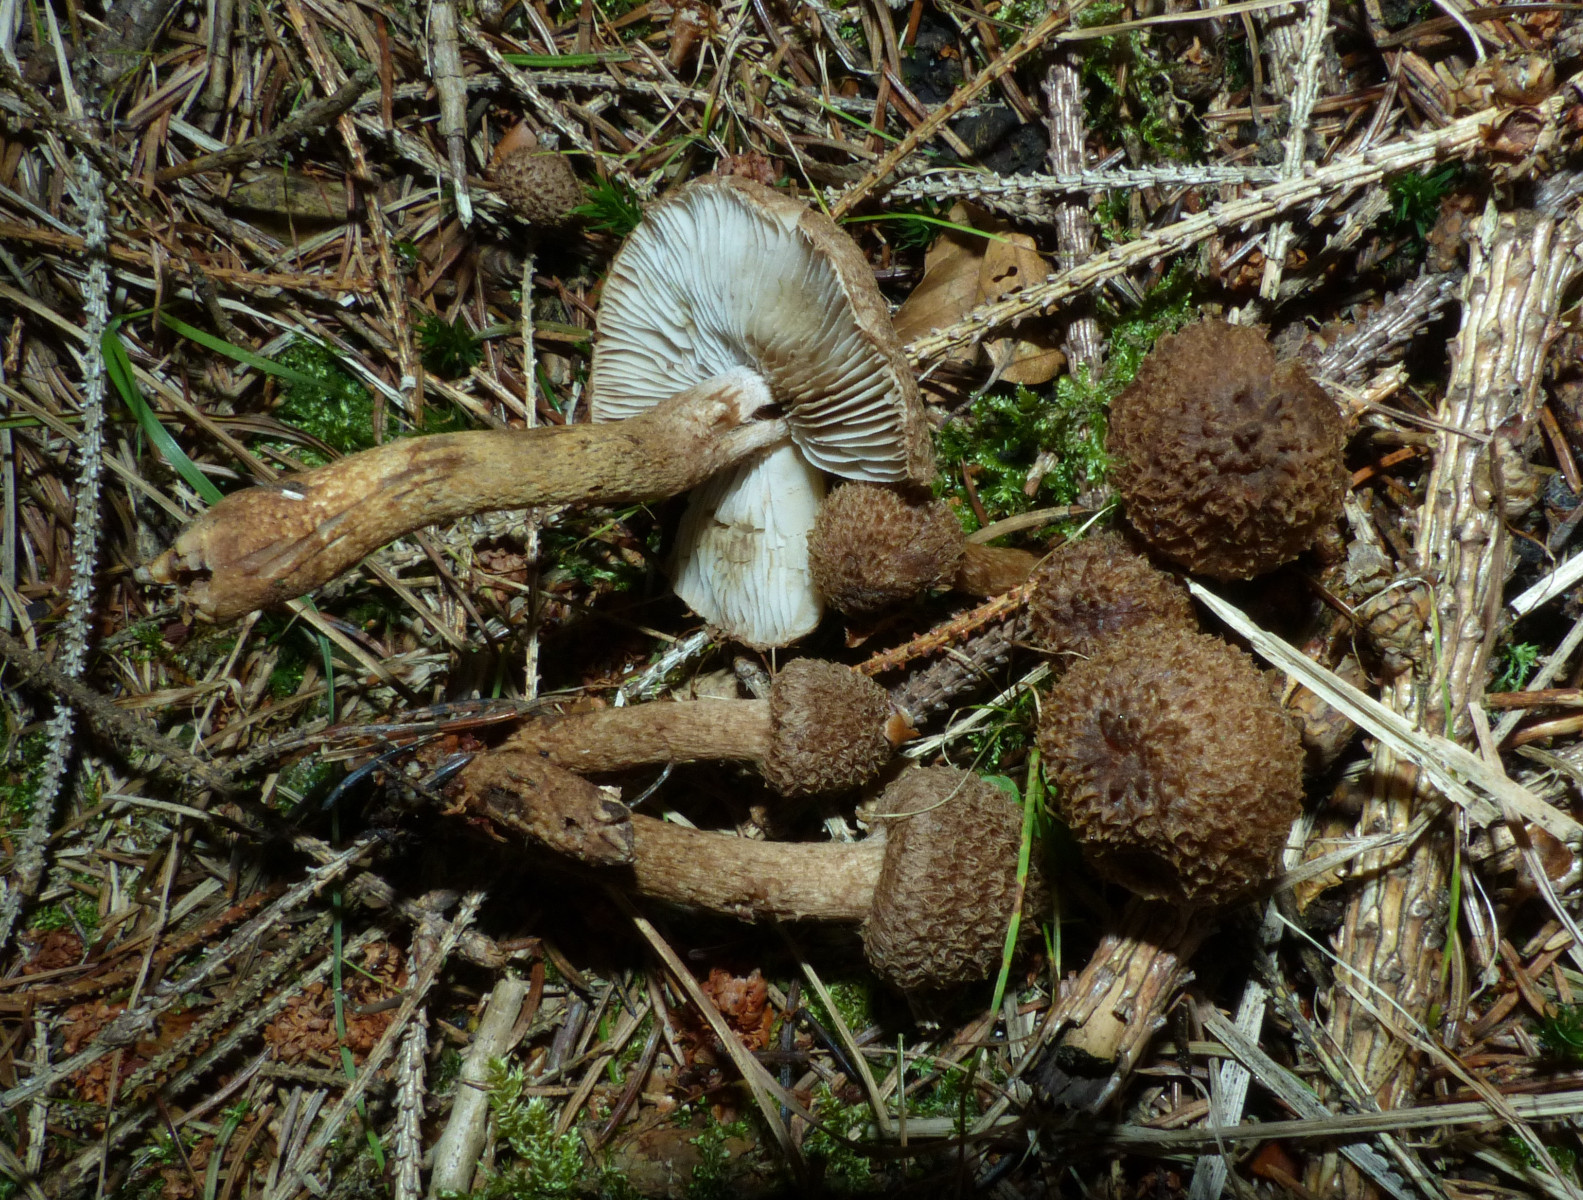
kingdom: Fungi
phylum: Basidiomycota
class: Agaricomycetes
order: Agaricales
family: Inocybaceae
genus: Inocybe
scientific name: Inocybe
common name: trævlhat
